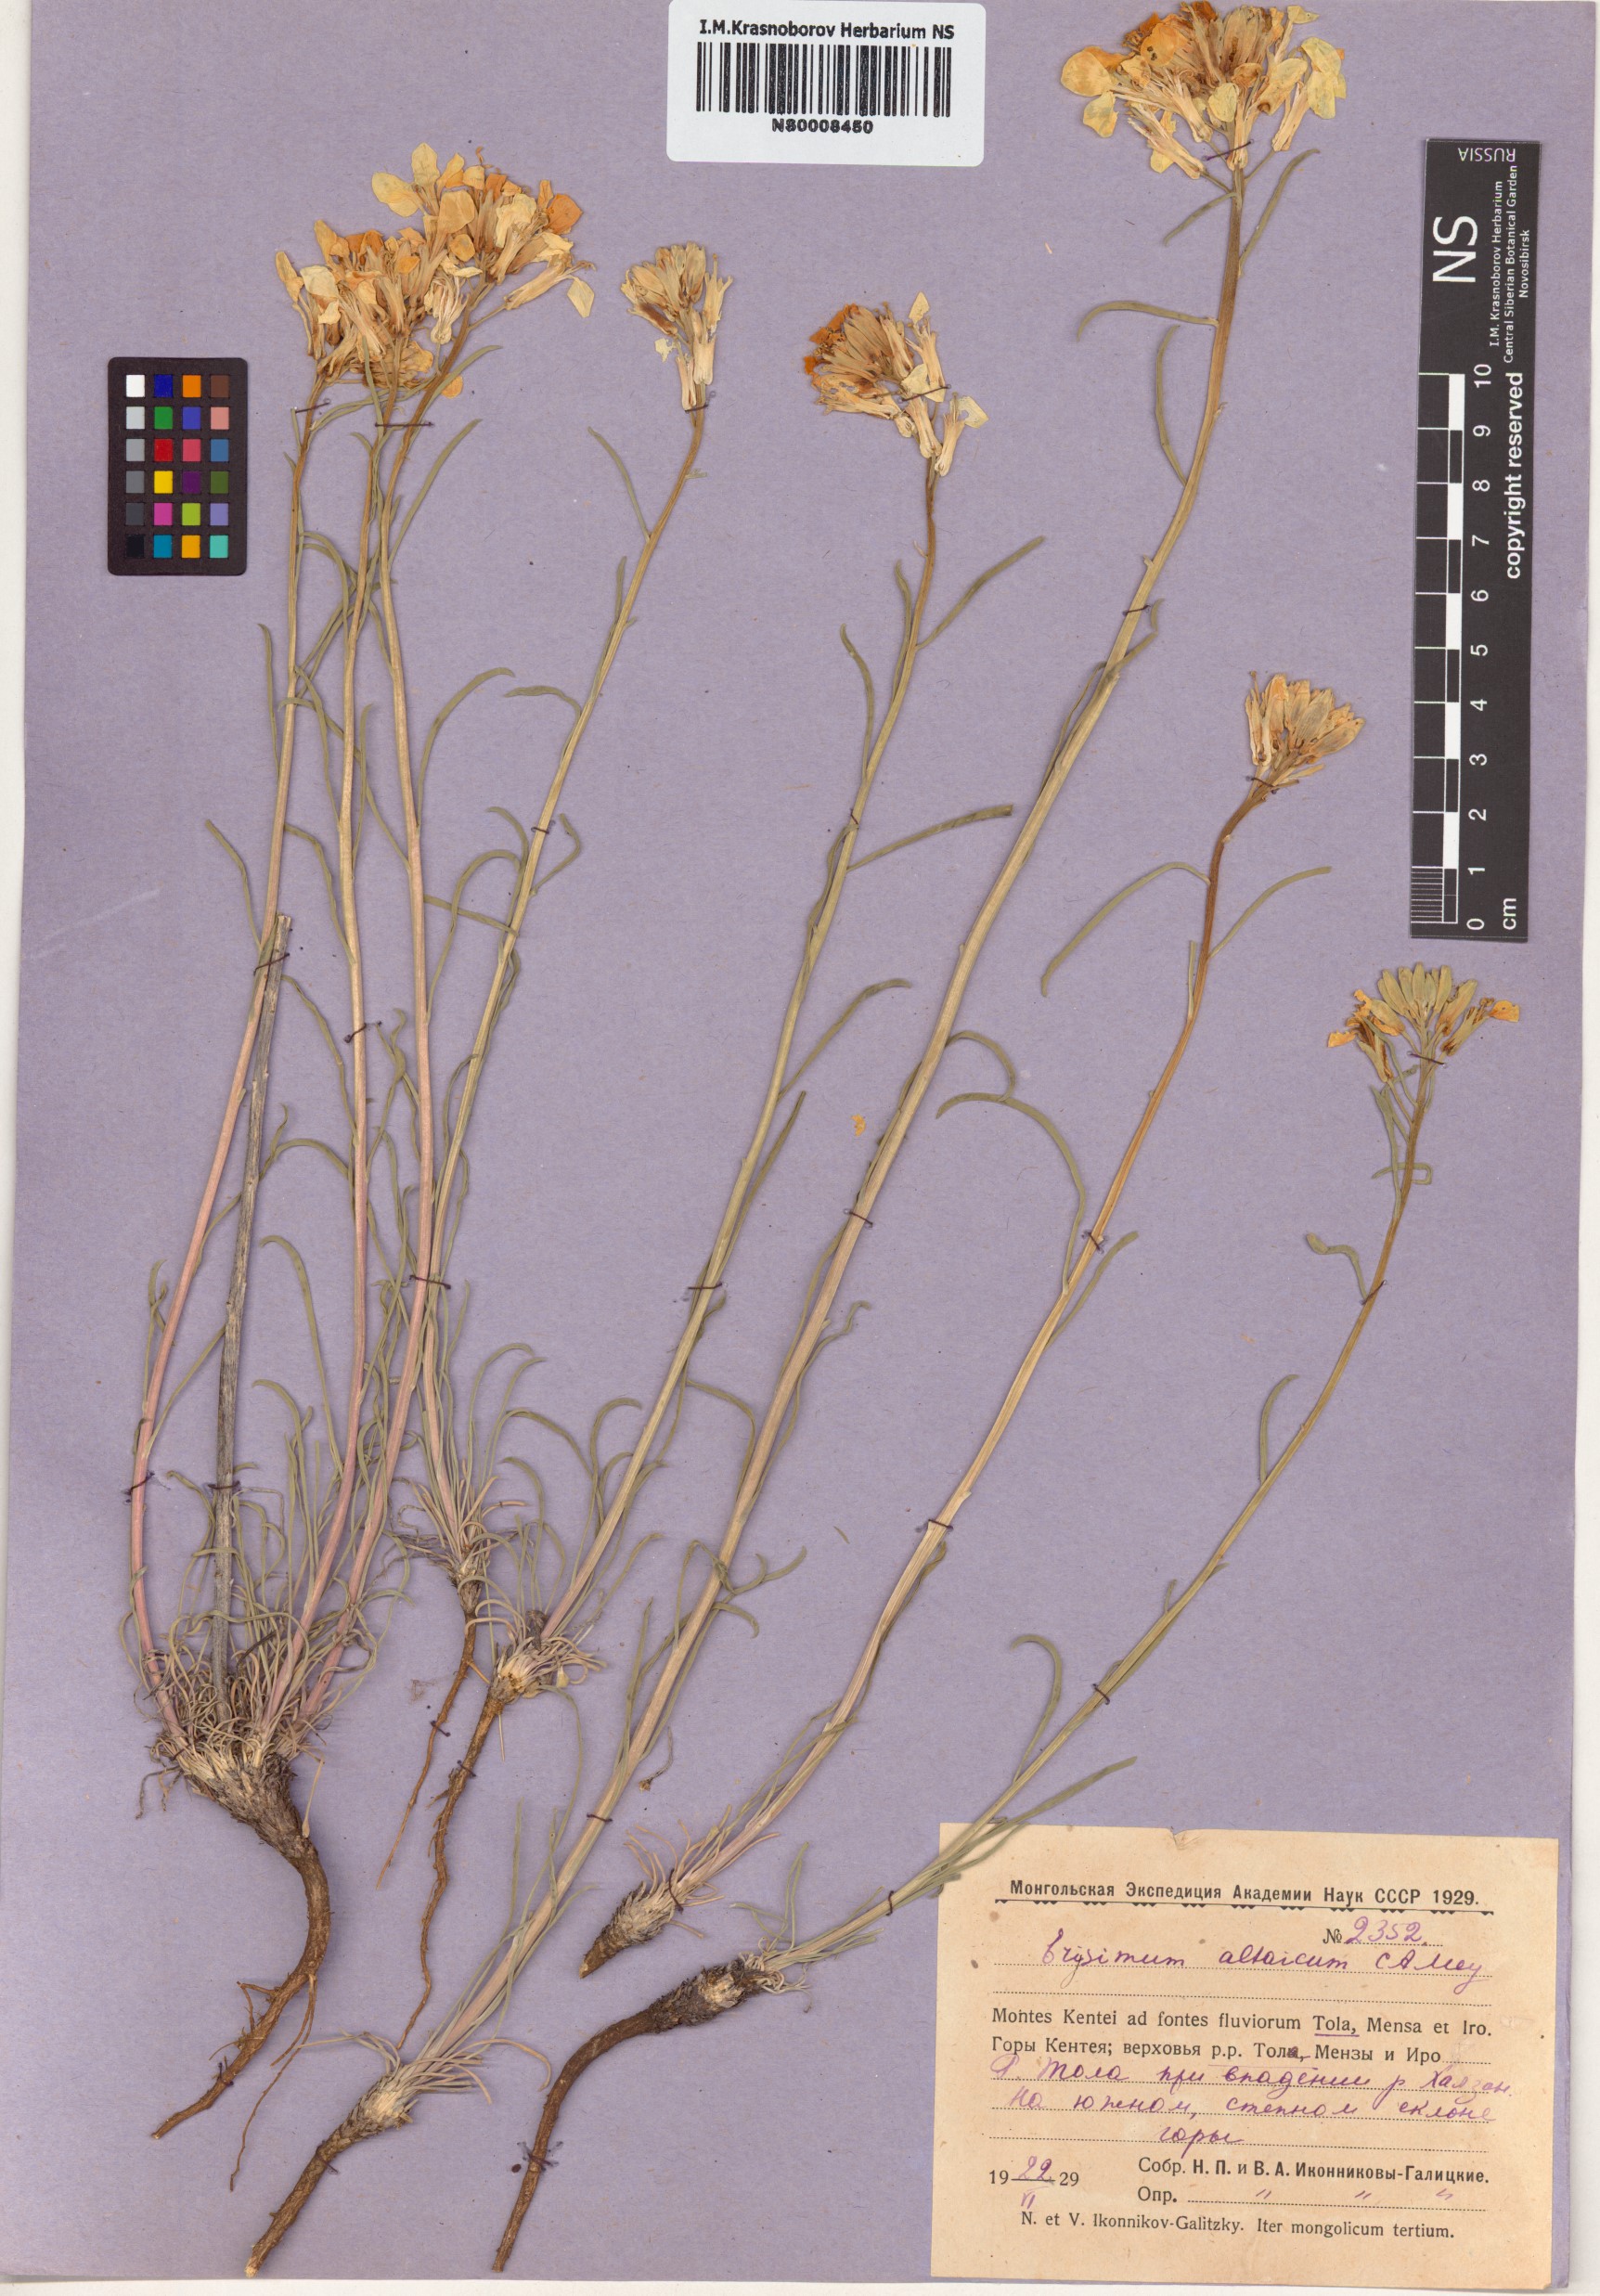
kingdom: Plantae
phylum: Tracheophyta
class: Magnoliopsida
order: Brassicales
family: Brassicaceae
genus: Erysimum
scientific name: Erysimum altaicum
